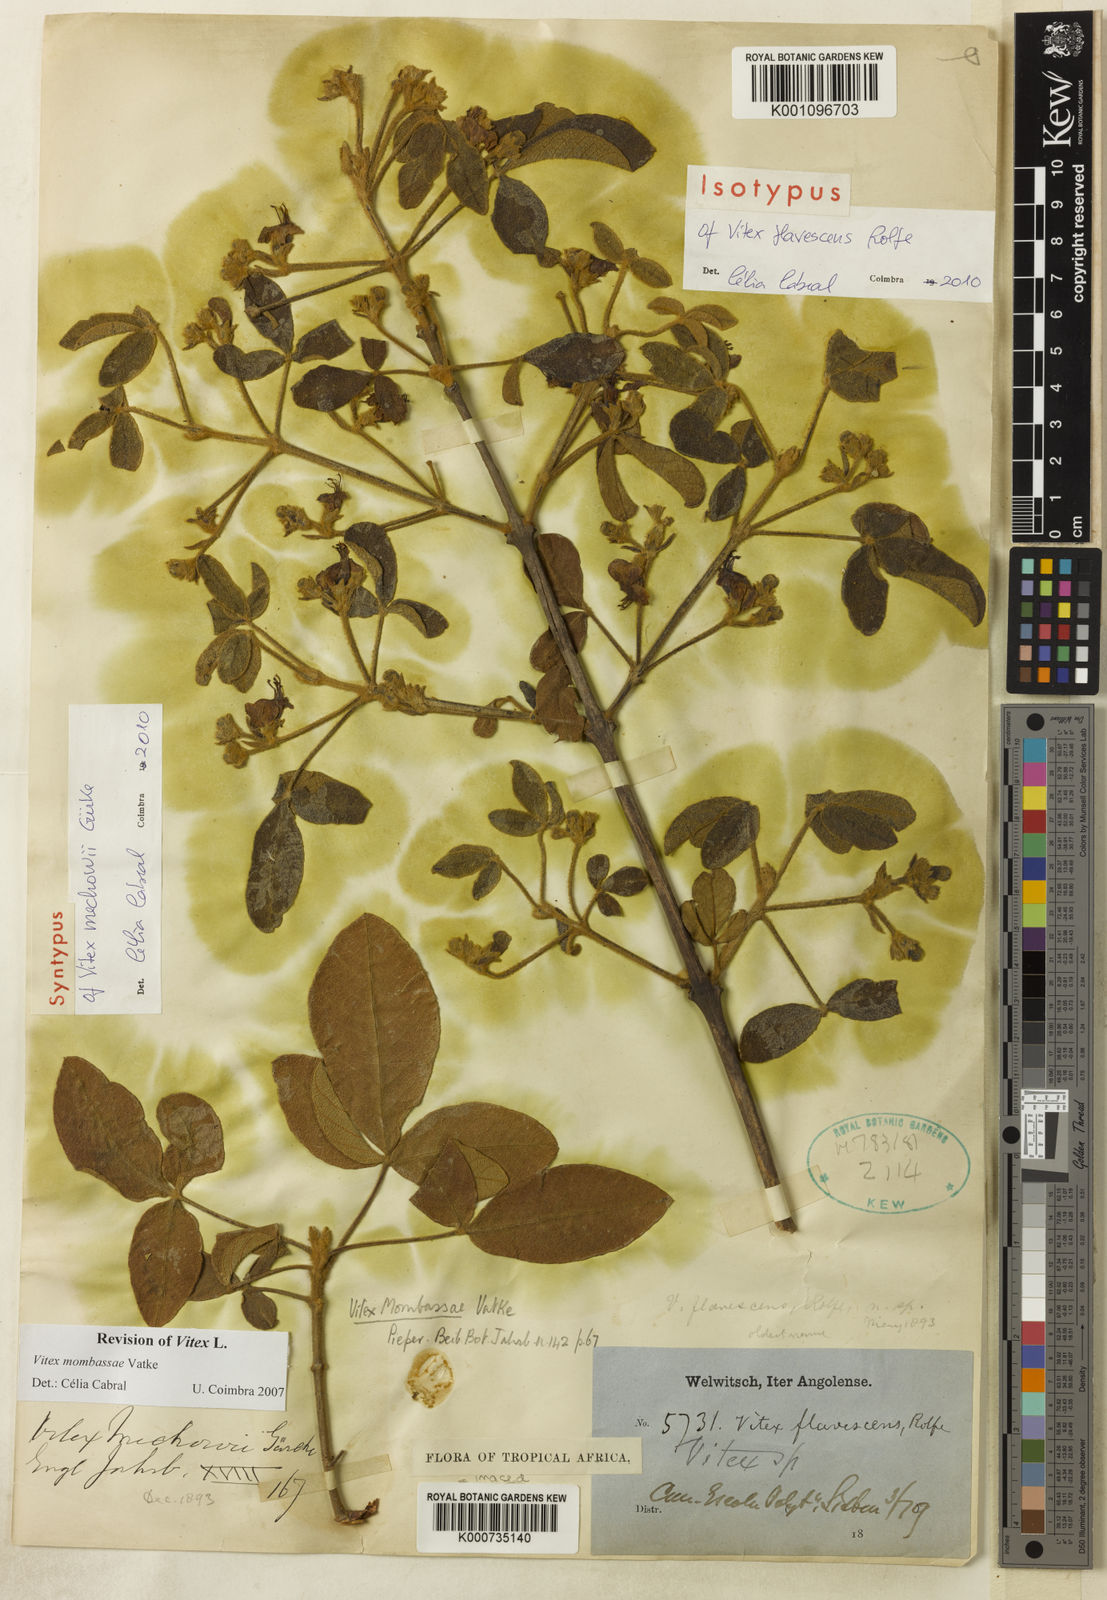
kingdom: Plantae
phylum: Tracheophyta
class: Magnoliopsida
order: Lamiales
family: Lamiaceae
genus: Vitex
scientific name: Vitex mombassae
